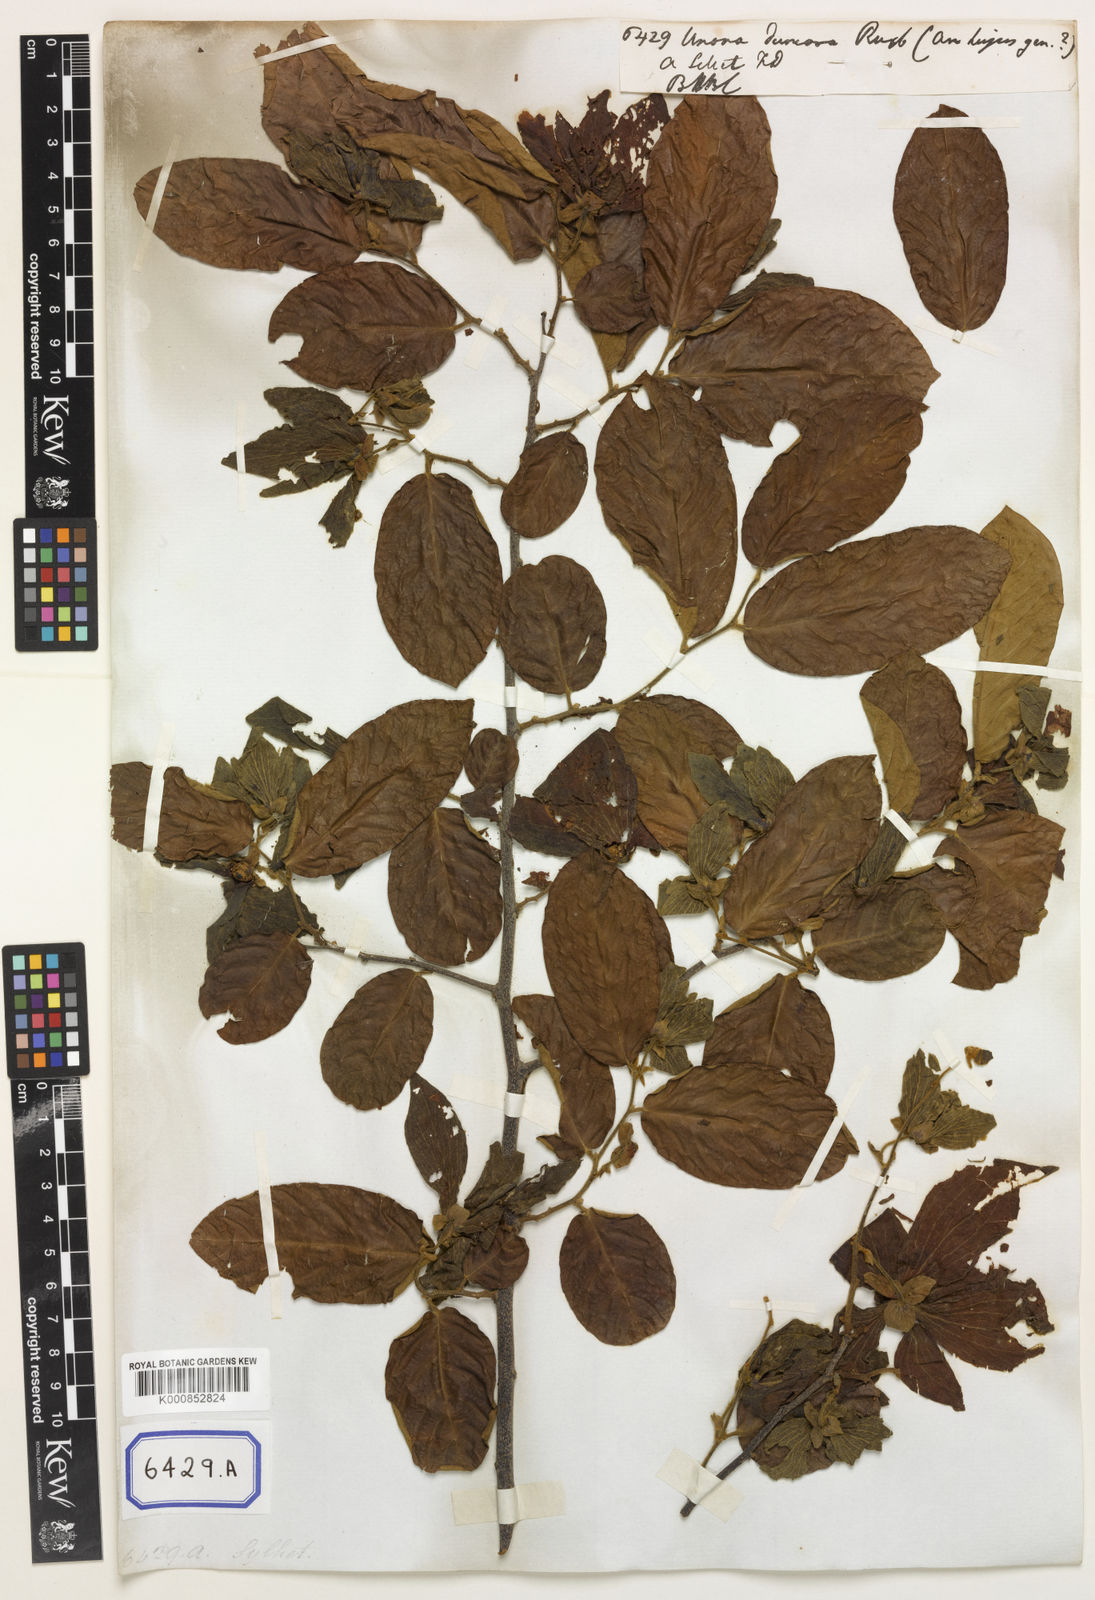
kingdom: Plantae
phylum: Tracheophyta
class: Magnoliopsida
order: Magnoliales
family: Annonaceae
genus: Desmos
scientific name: Desmos dumosus
